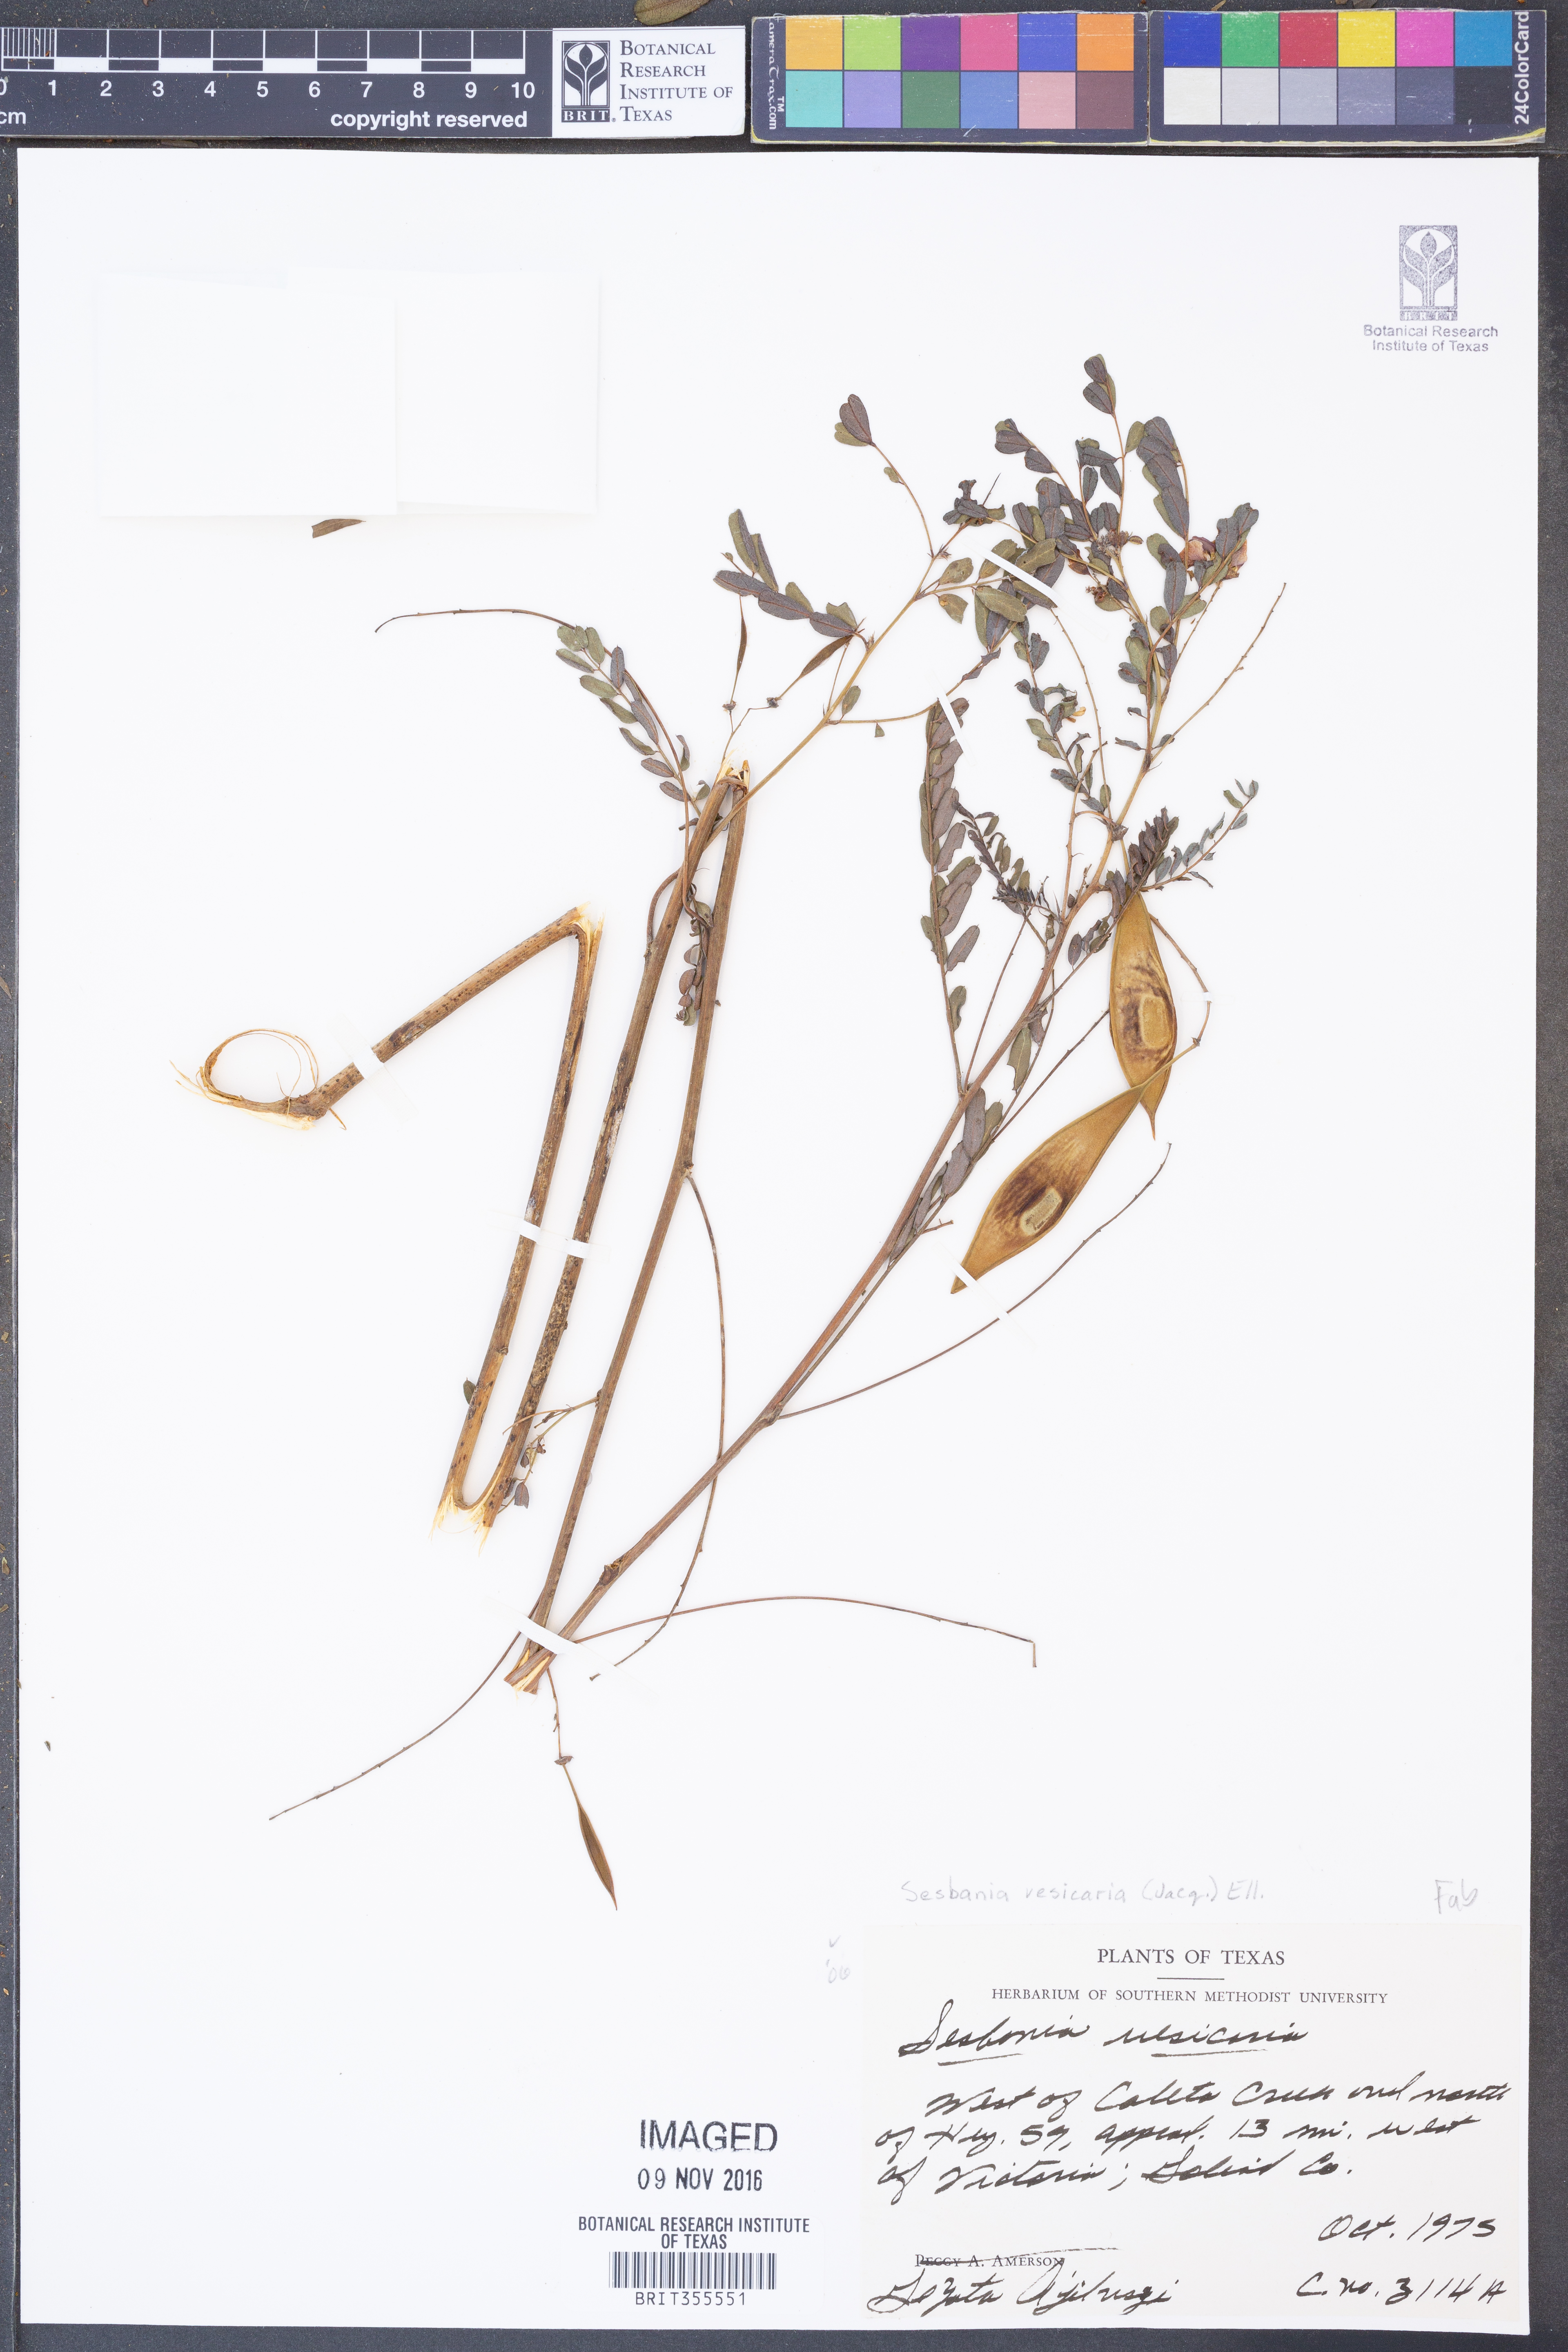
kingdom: Plantae
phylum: Tracheophyta
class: Magnoliopsida
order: Fabales
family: Fabaceae
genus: Sesbania
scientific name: Sesbania vesicaria
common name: Bagpod
